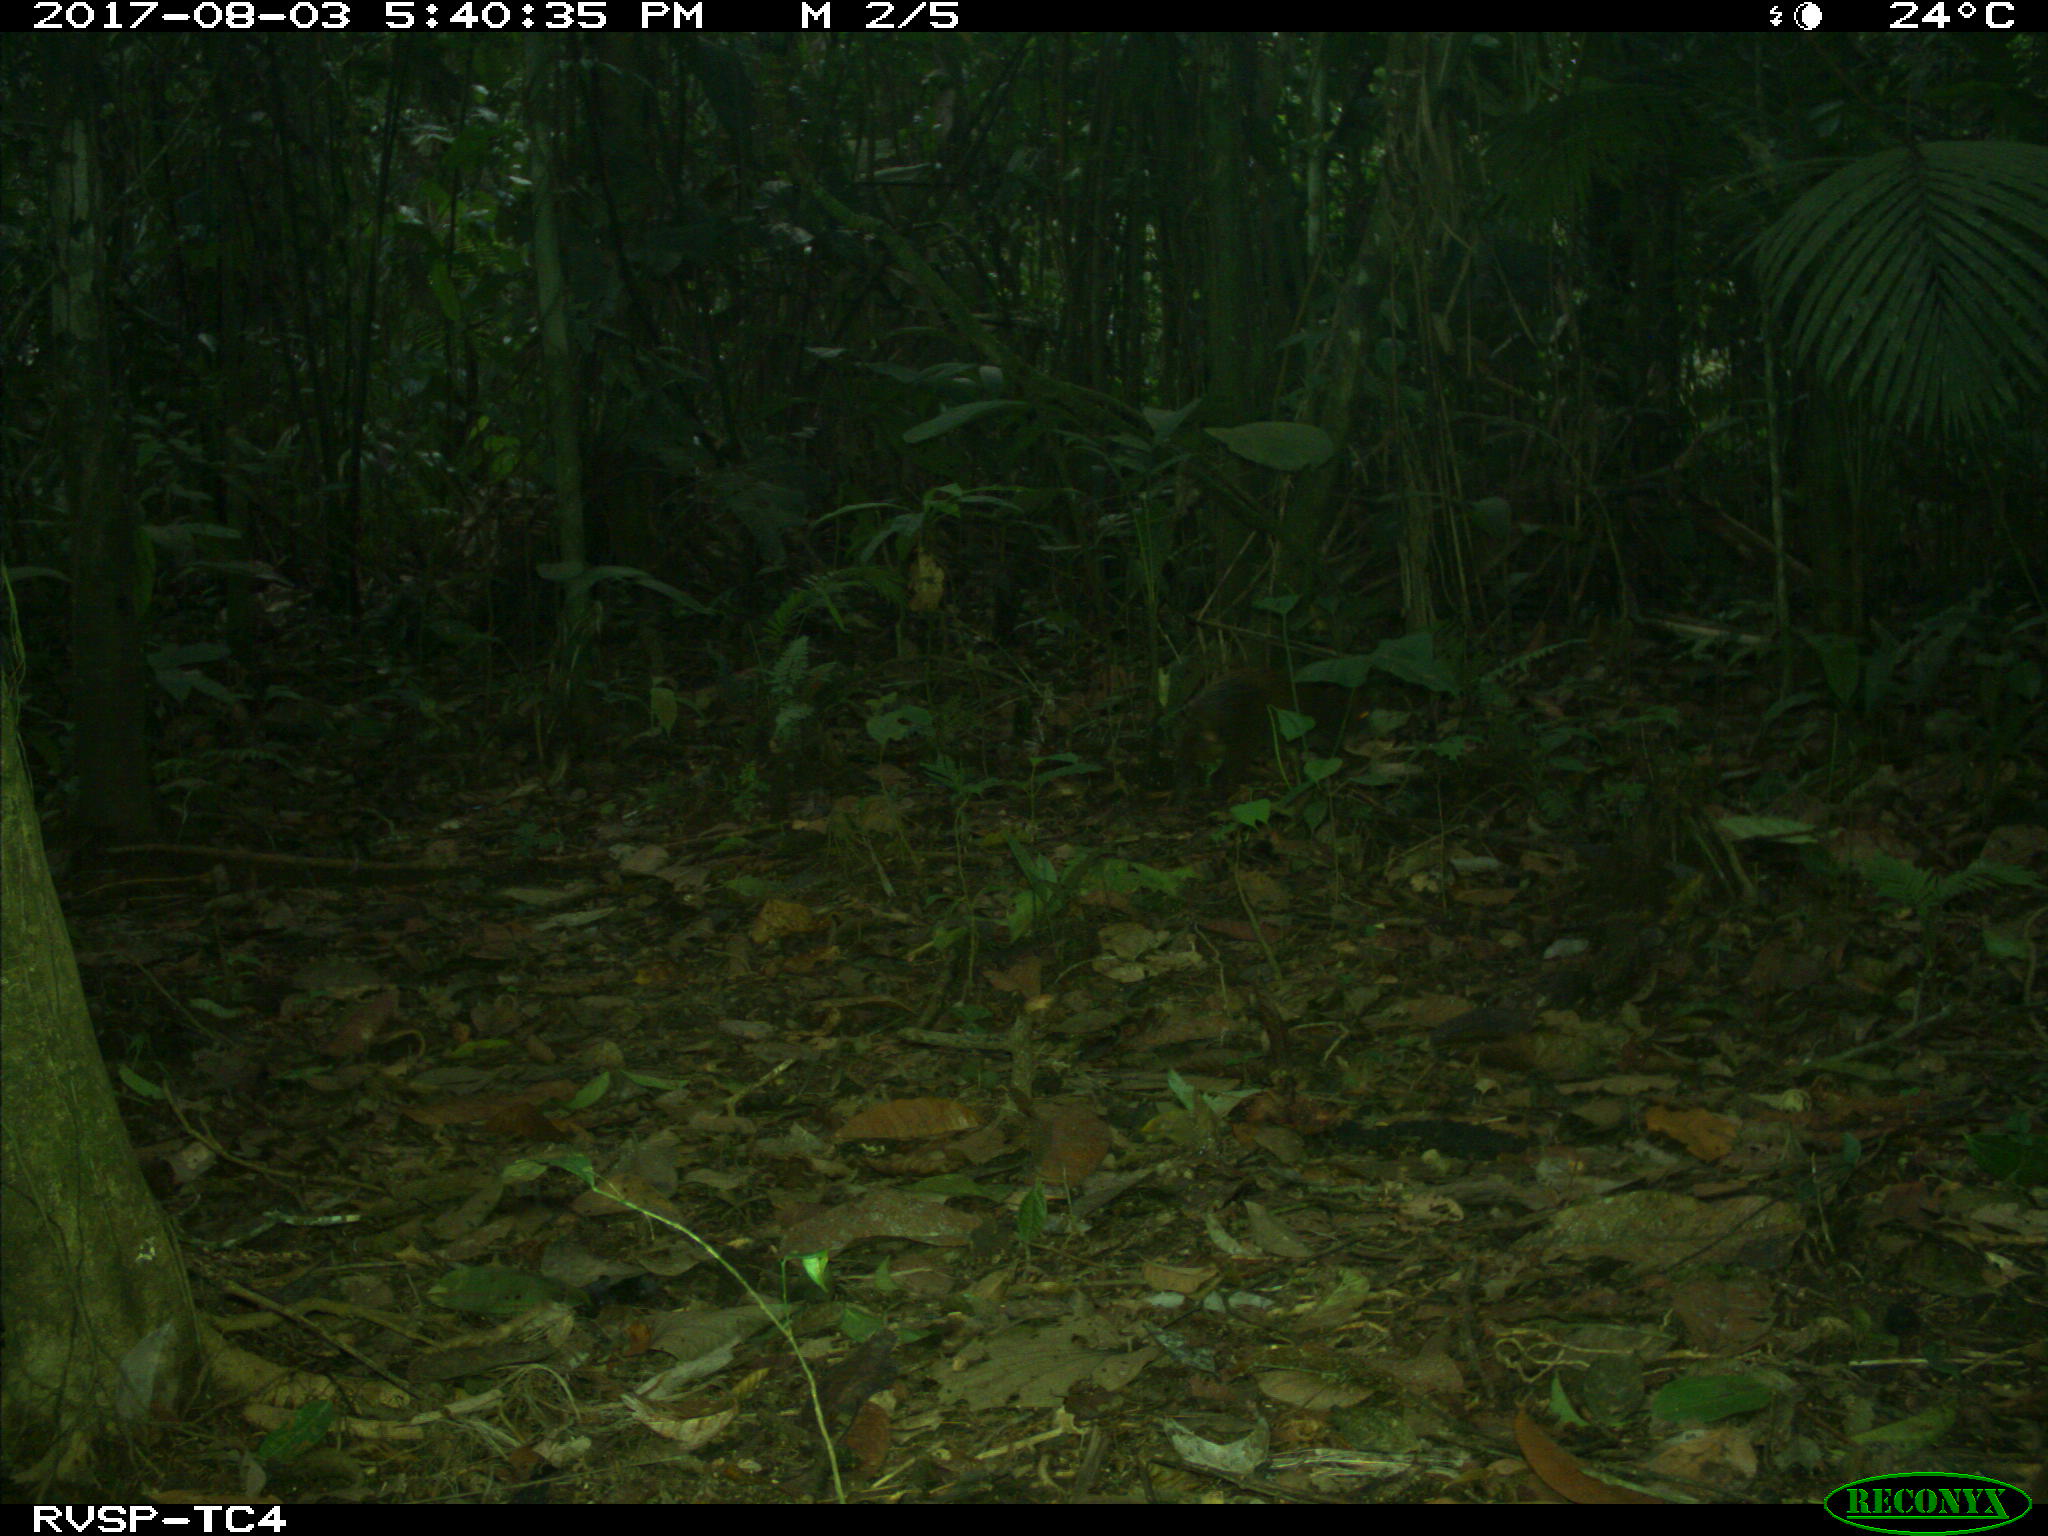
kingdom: Animalia
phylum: Chordata
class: Mammalia
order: Rodentia
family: Dasyproctidae
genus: Dasyprocta
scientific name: Dasyprocta punctata
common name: Central american agouti
